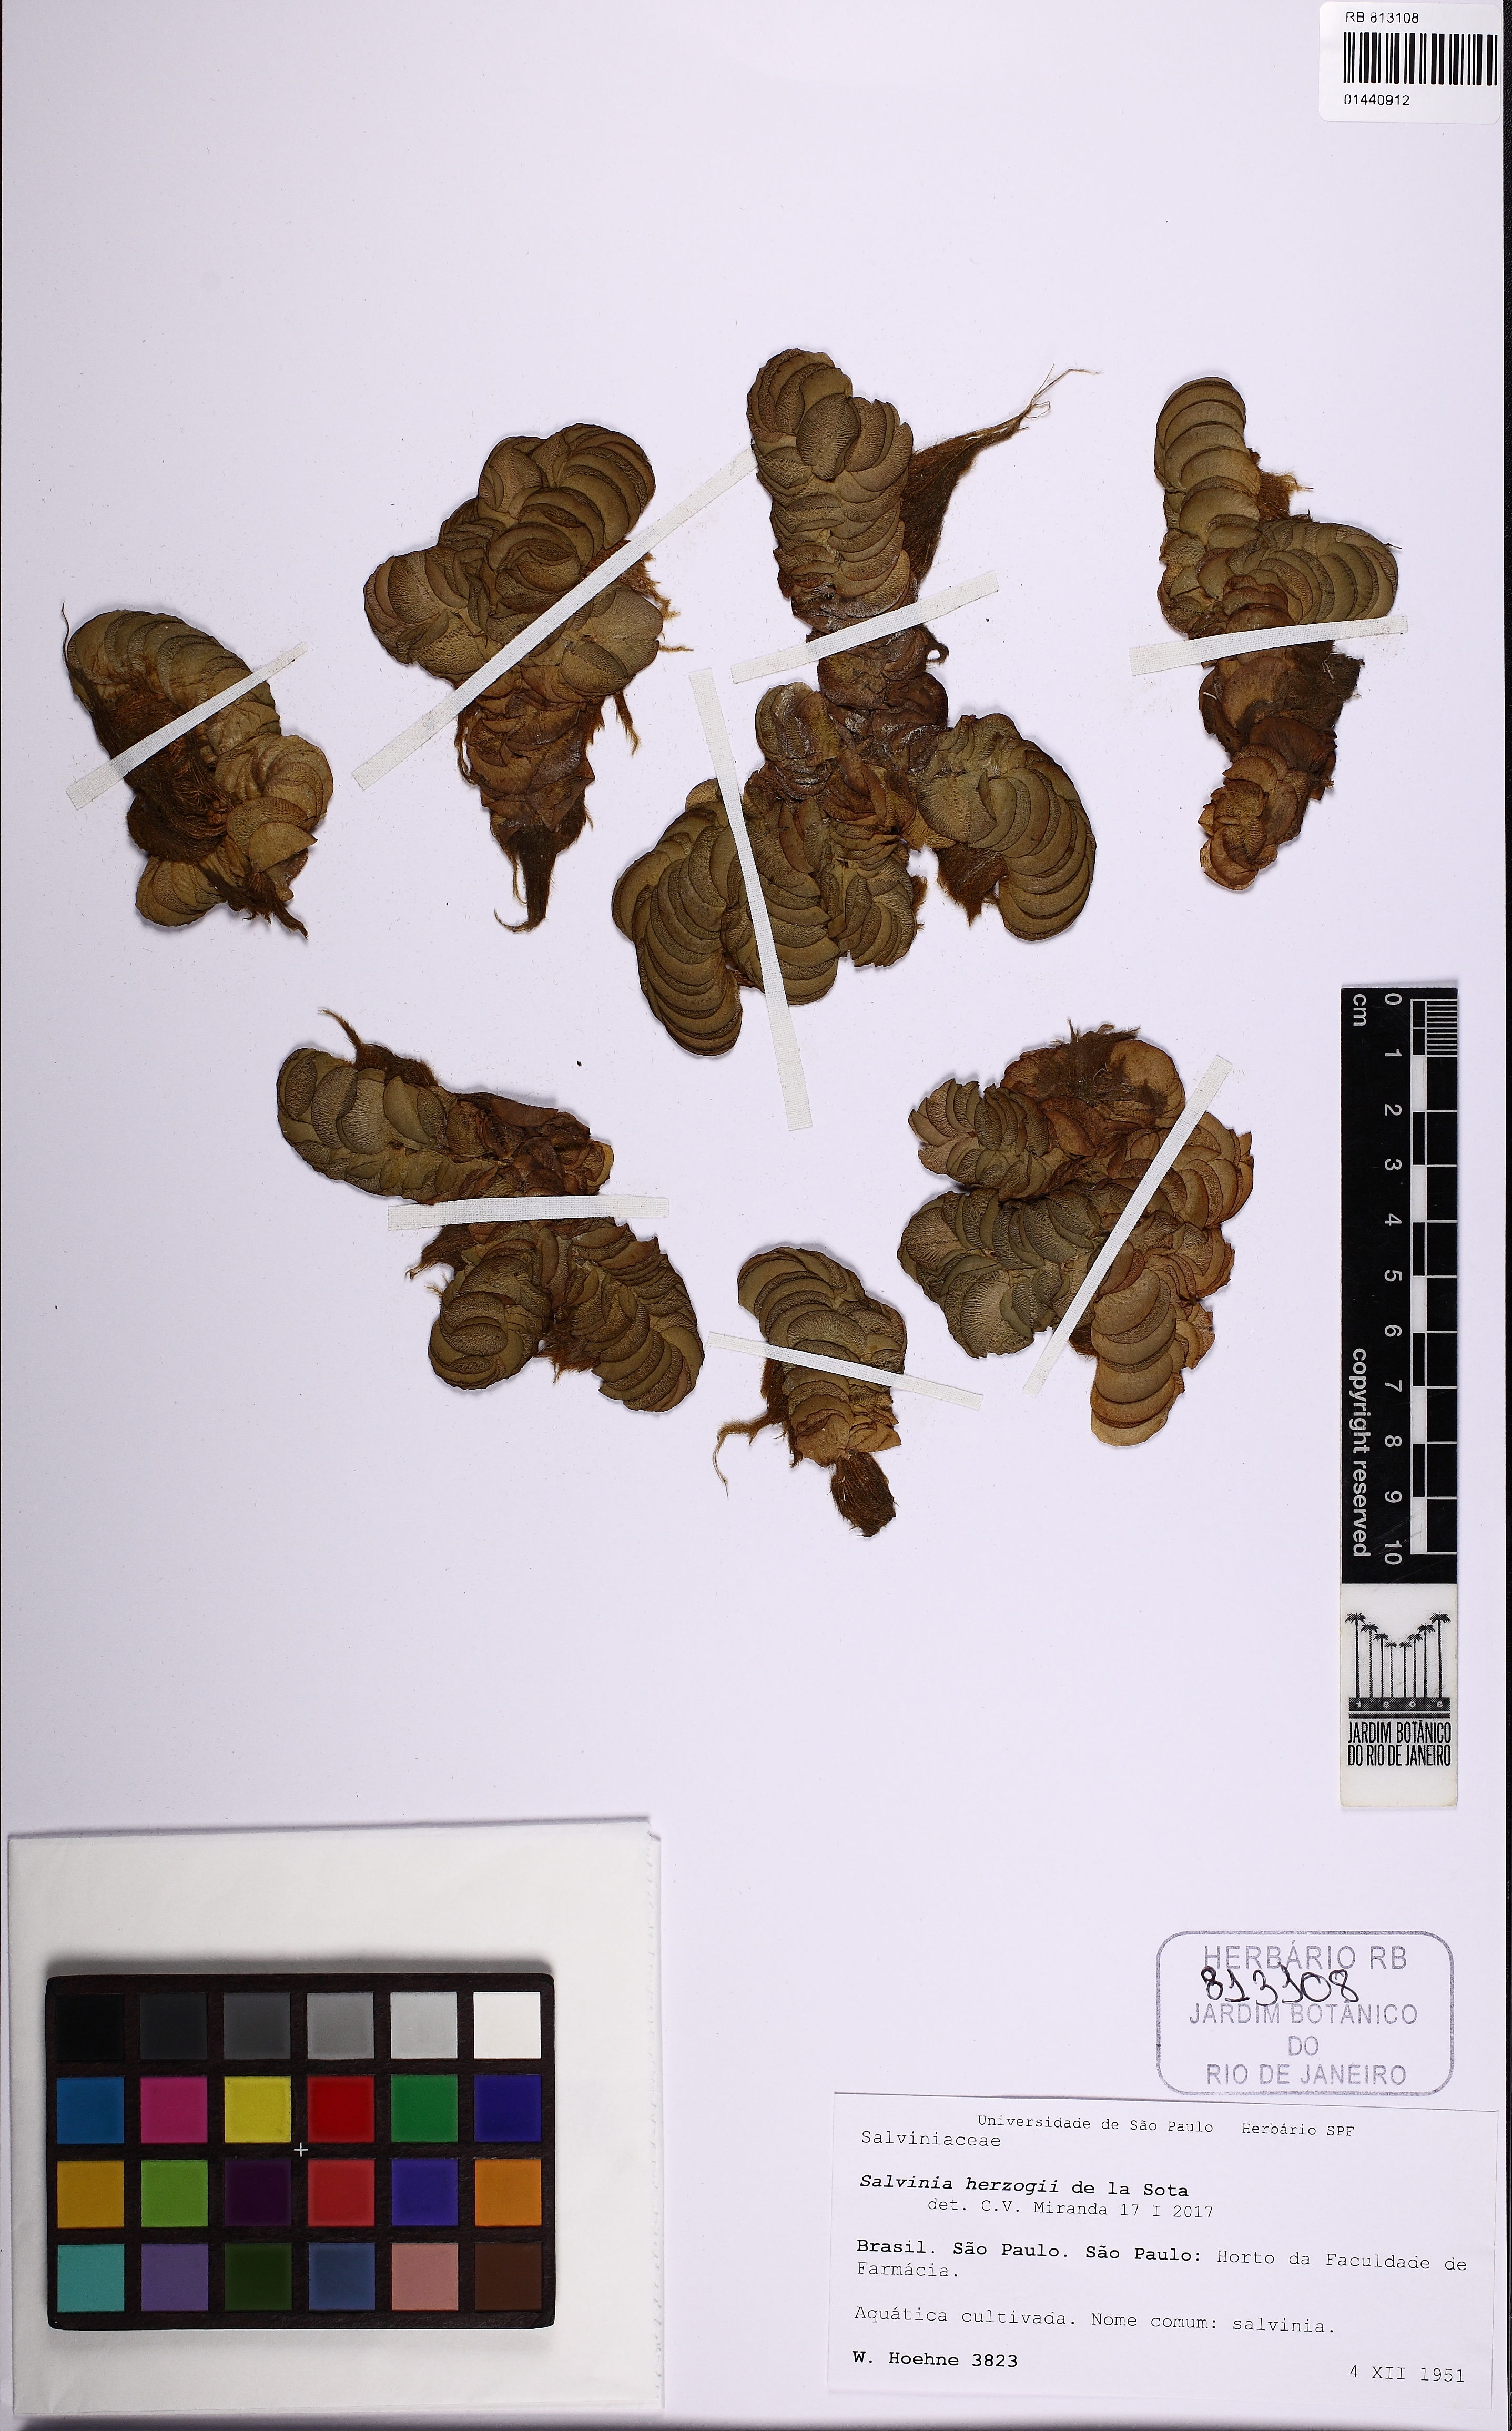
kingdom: Plantae
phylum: Tracheophyta
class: Polypodiopsida
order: Salviniales
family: Salviniaceae
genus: Salvinia
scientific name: Salvinia biloba
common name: Giant salvinia
